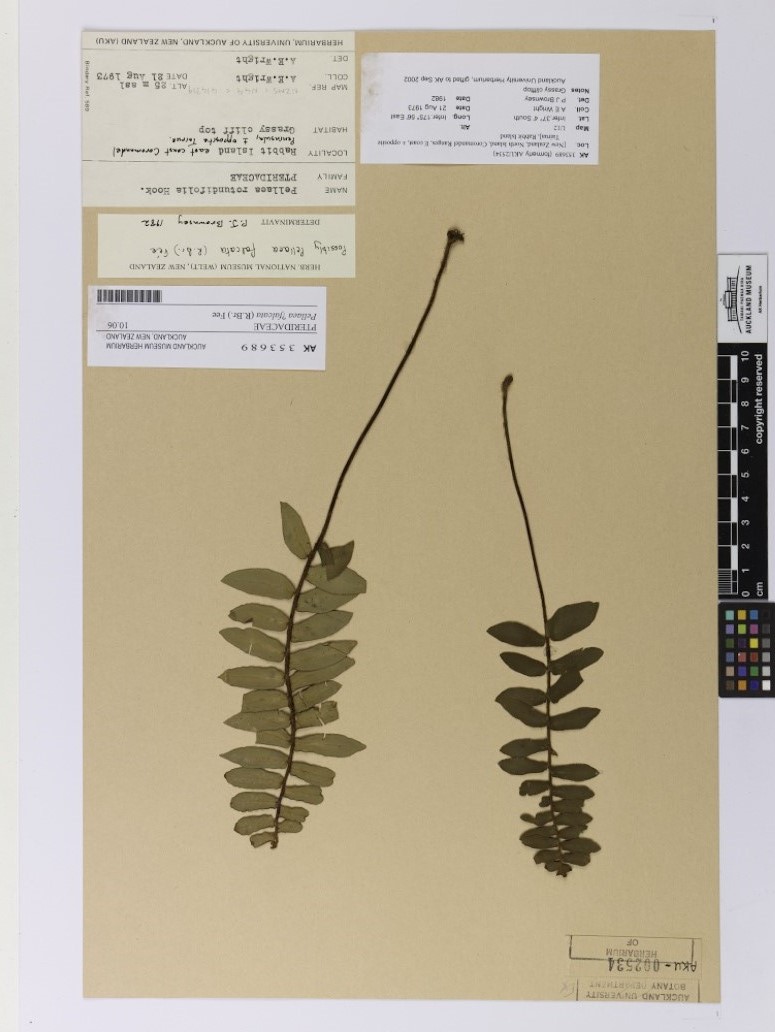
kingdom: Plantae
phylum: Tracheophyta
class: Polypodiopsida
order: Polypodiales
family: Pteridaceae
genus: Pellaea
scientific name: Pellaea falcata
